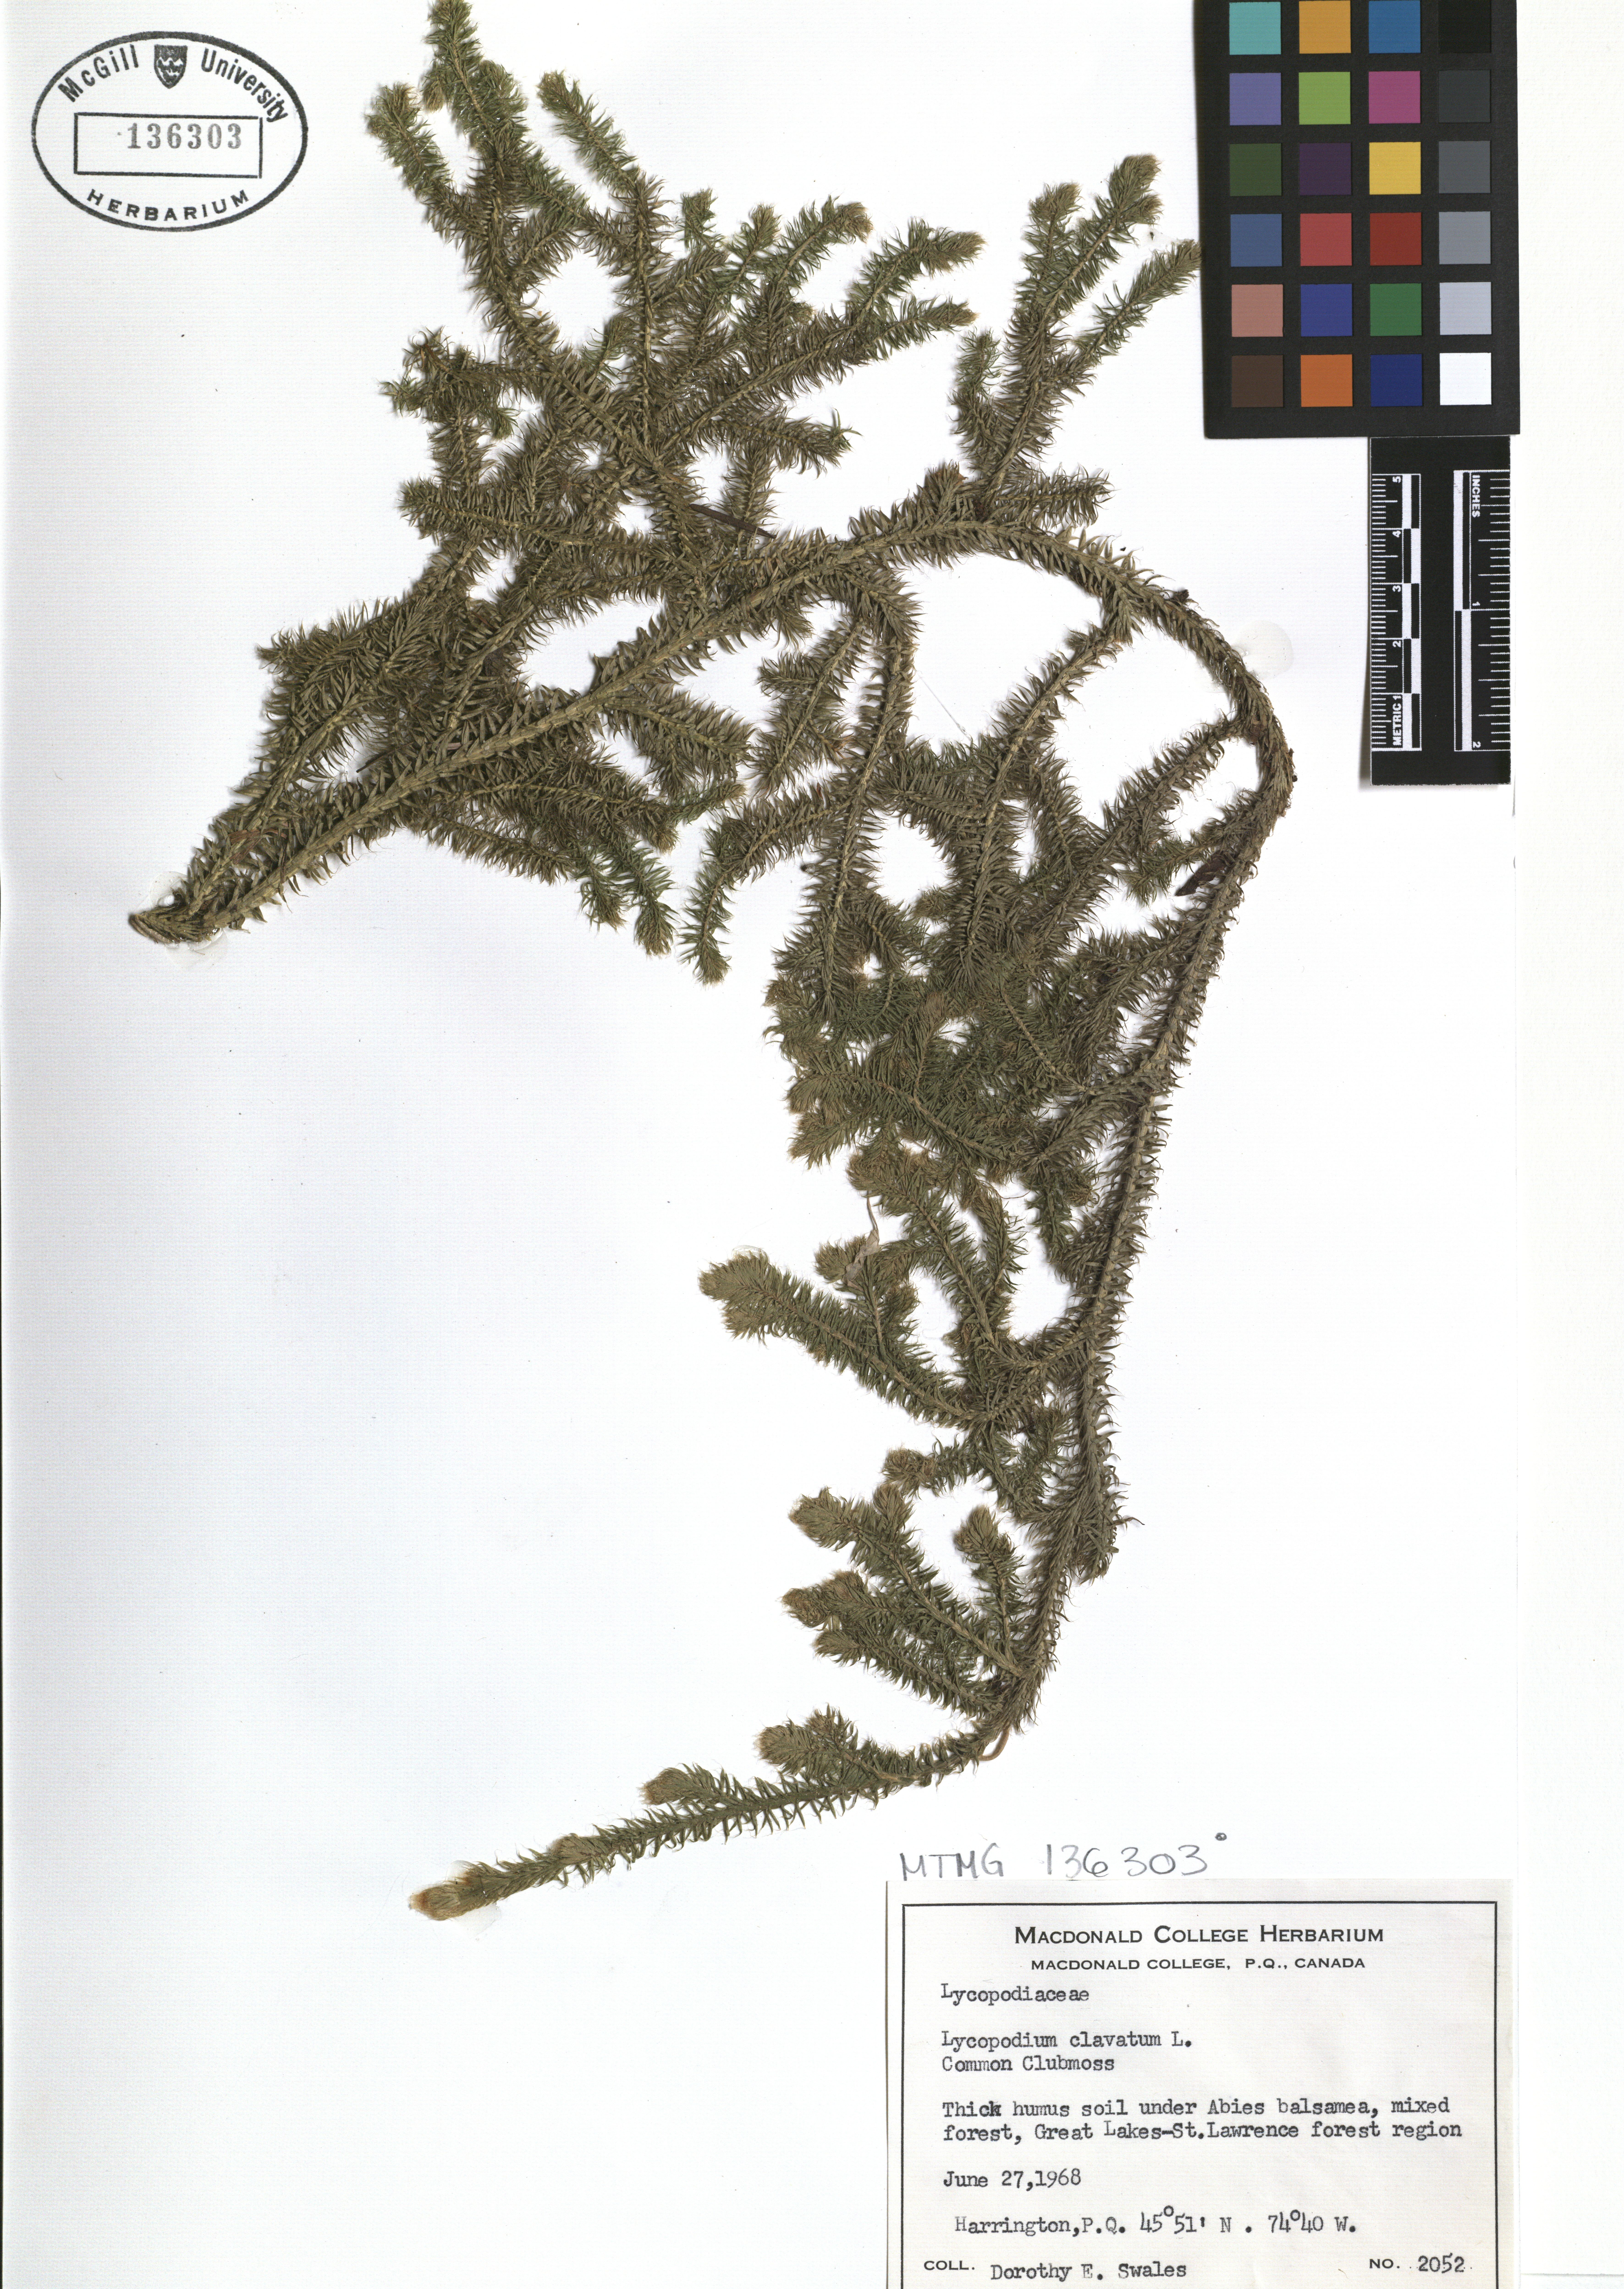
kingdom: Plantae
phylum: Tracheophyta
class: Lycopodiopsida
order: Lycopodiales
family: Lycopodiaceae
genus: Lycopodium
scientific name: Lycopodium clavatum
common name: Stag's-horn clubmoss
